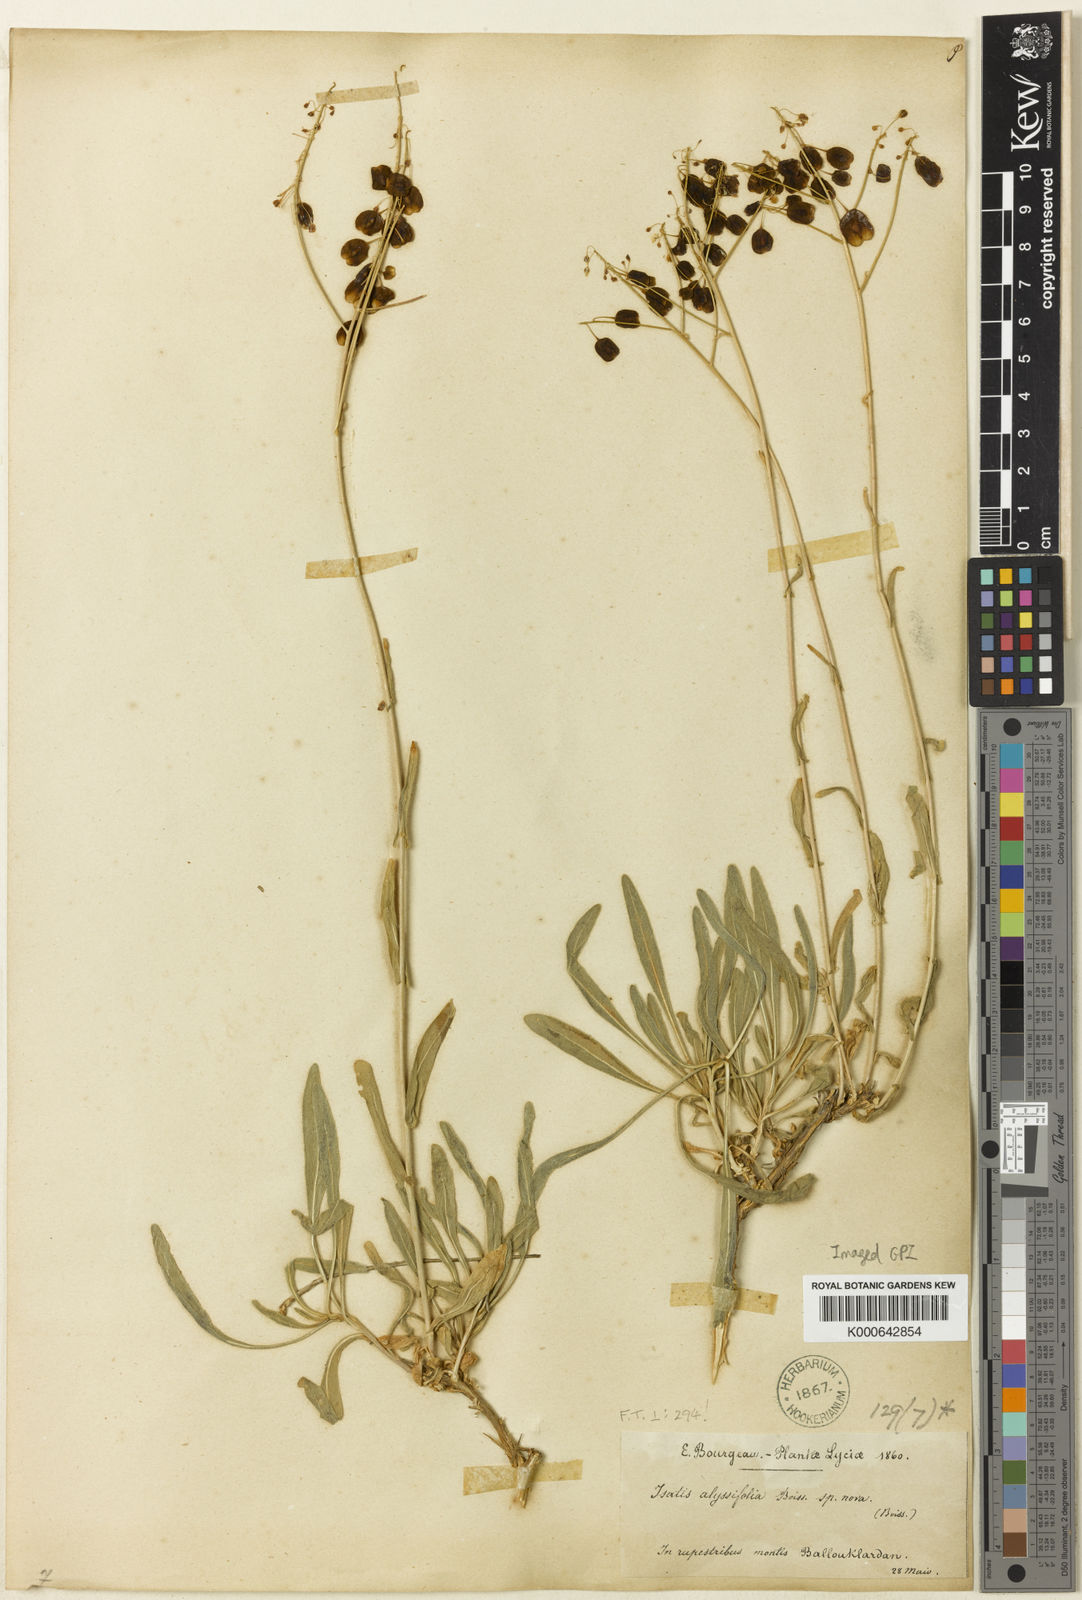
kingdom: Plantae
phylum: Tracheophyta
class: Magnoliopsida
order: Brassicales
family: Brassicaceae
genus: Isatis
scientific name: Isatis cappadocica
